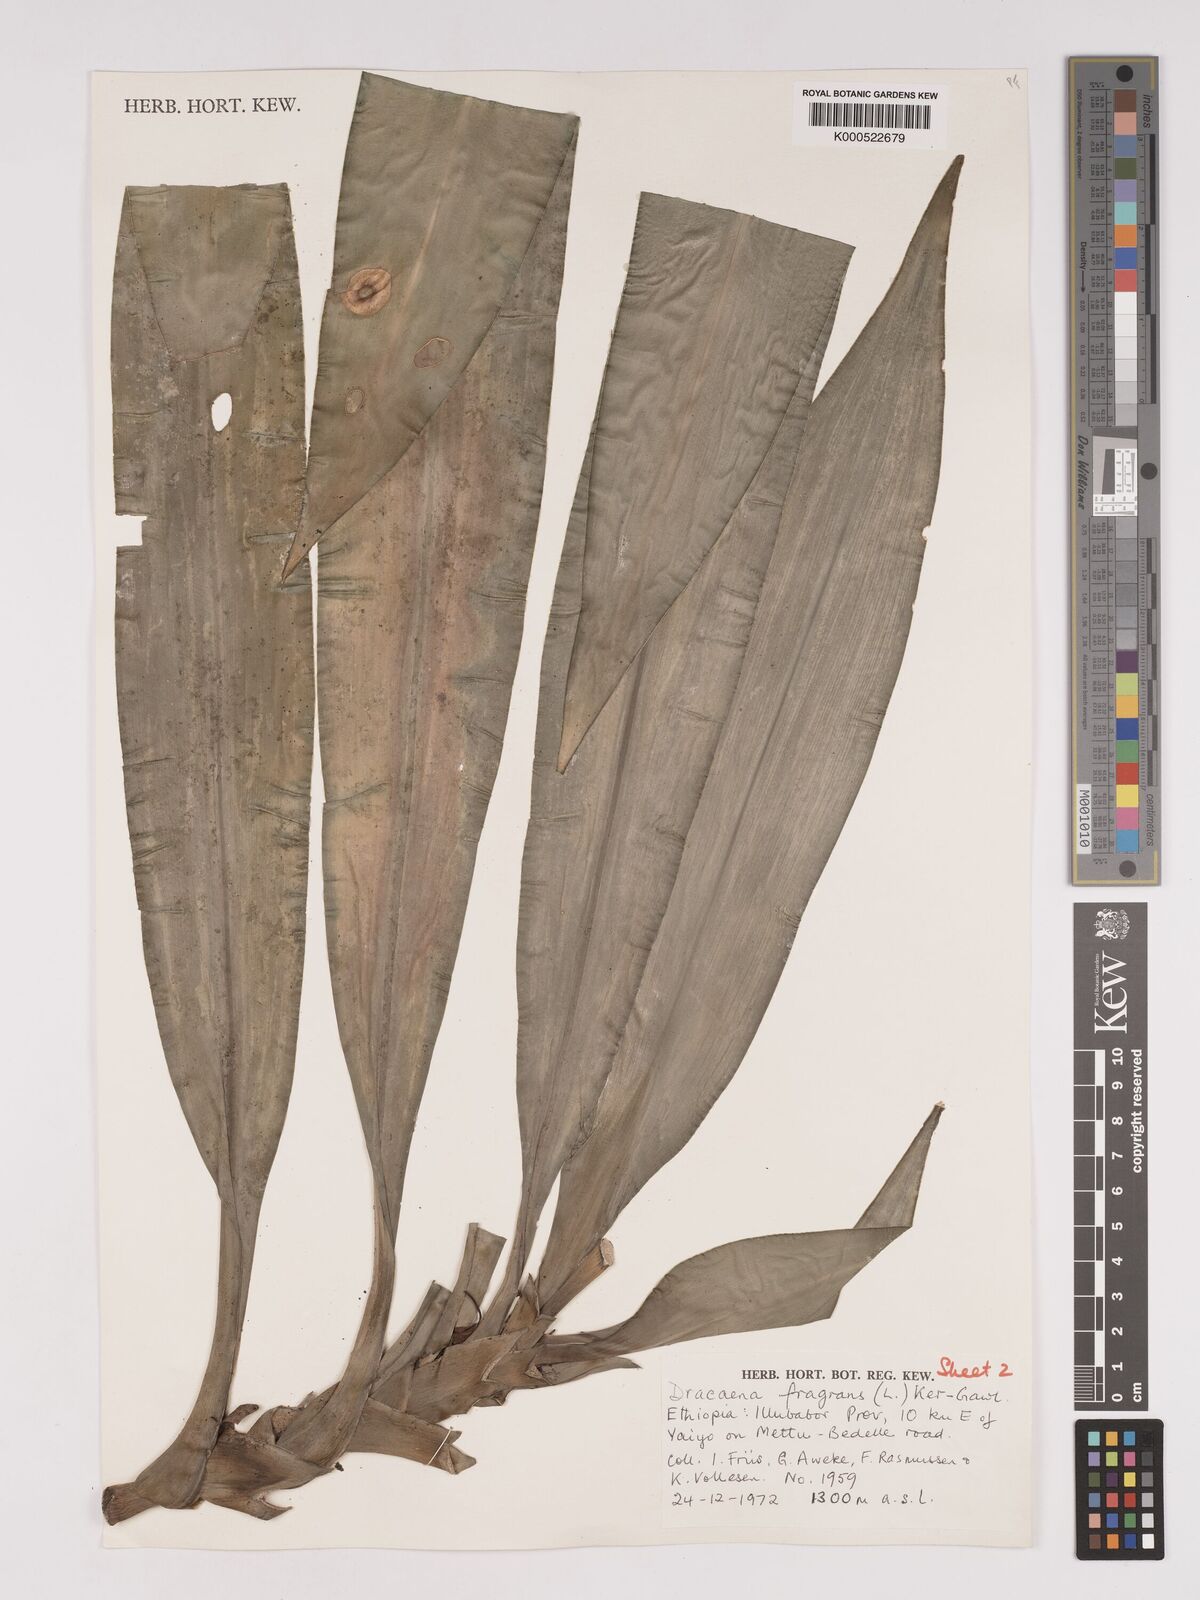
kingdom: Plantae
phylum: Tracheophyta
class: Liliopsida
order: Asparagales
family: Asparagaceae
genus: Dracaena
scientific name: Dracaena fragrans
